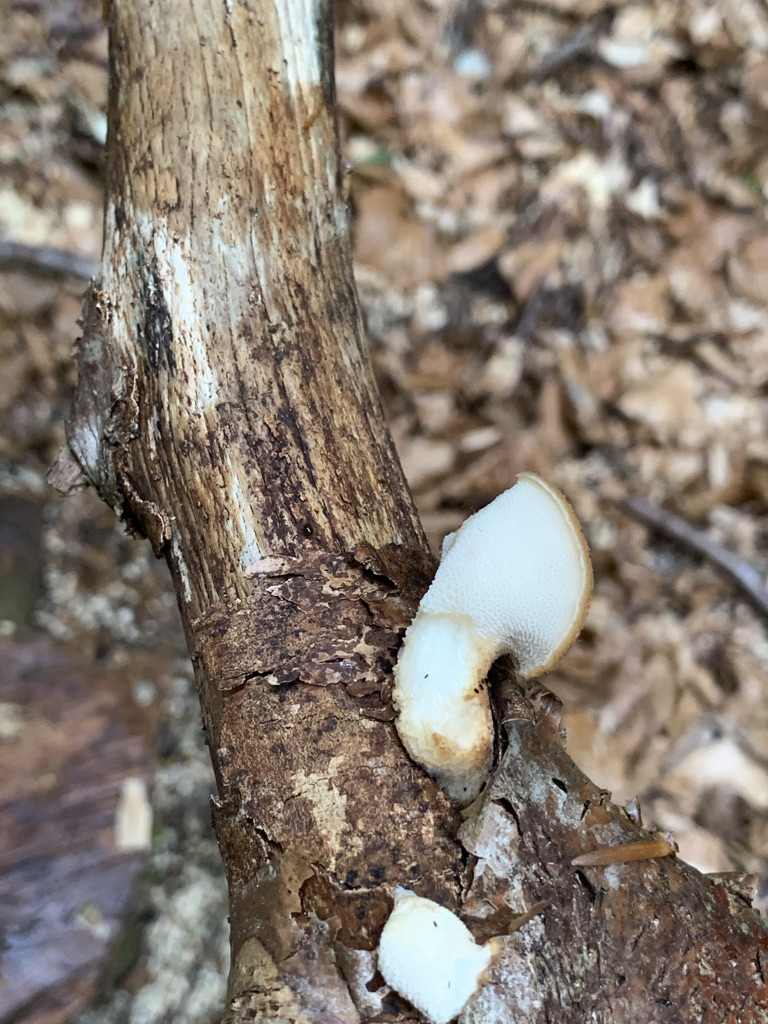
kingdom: Fungi
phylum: Basidiomycota
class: Agaricomycetes
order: Polyporales
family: Polyporaceae
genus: Polyporus
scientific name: Polyporus tuberaster
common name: knoldet stilkporesvamp
